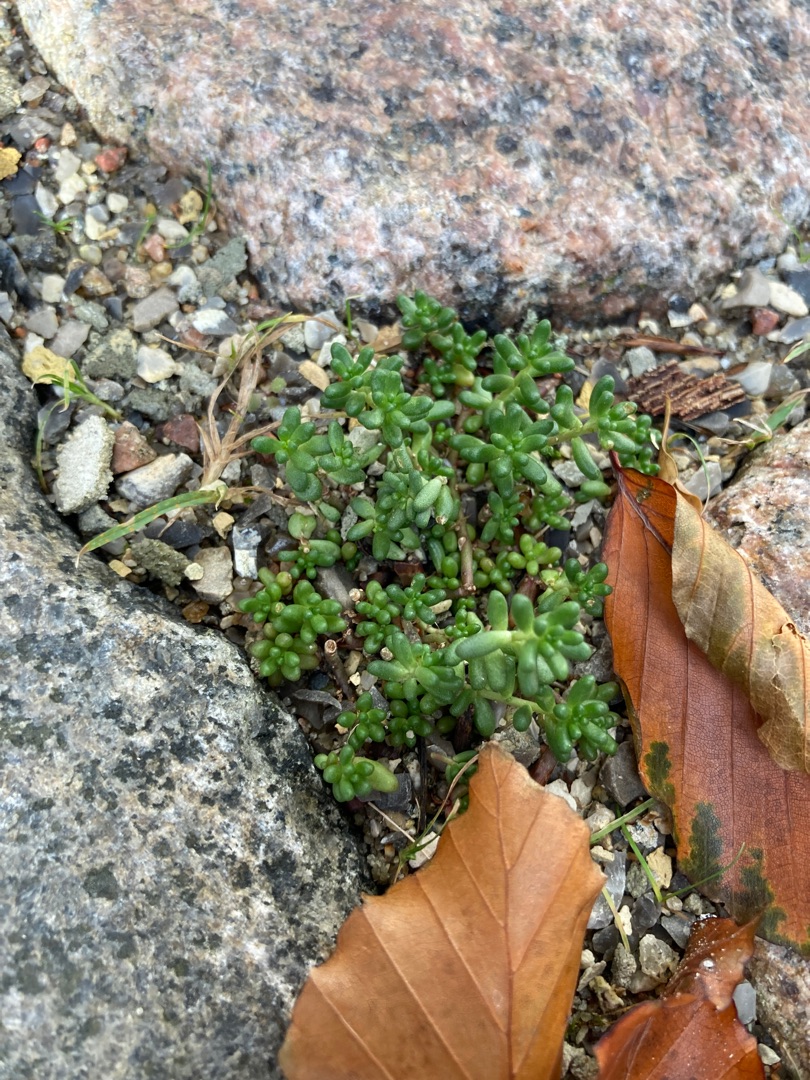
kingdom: Plantae
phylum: Tracheophyta
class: Magnoliopsida
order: Saxifragales
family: Crassulaceae
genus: Sedum
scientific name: Sedum album
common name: Hvid stenurt
